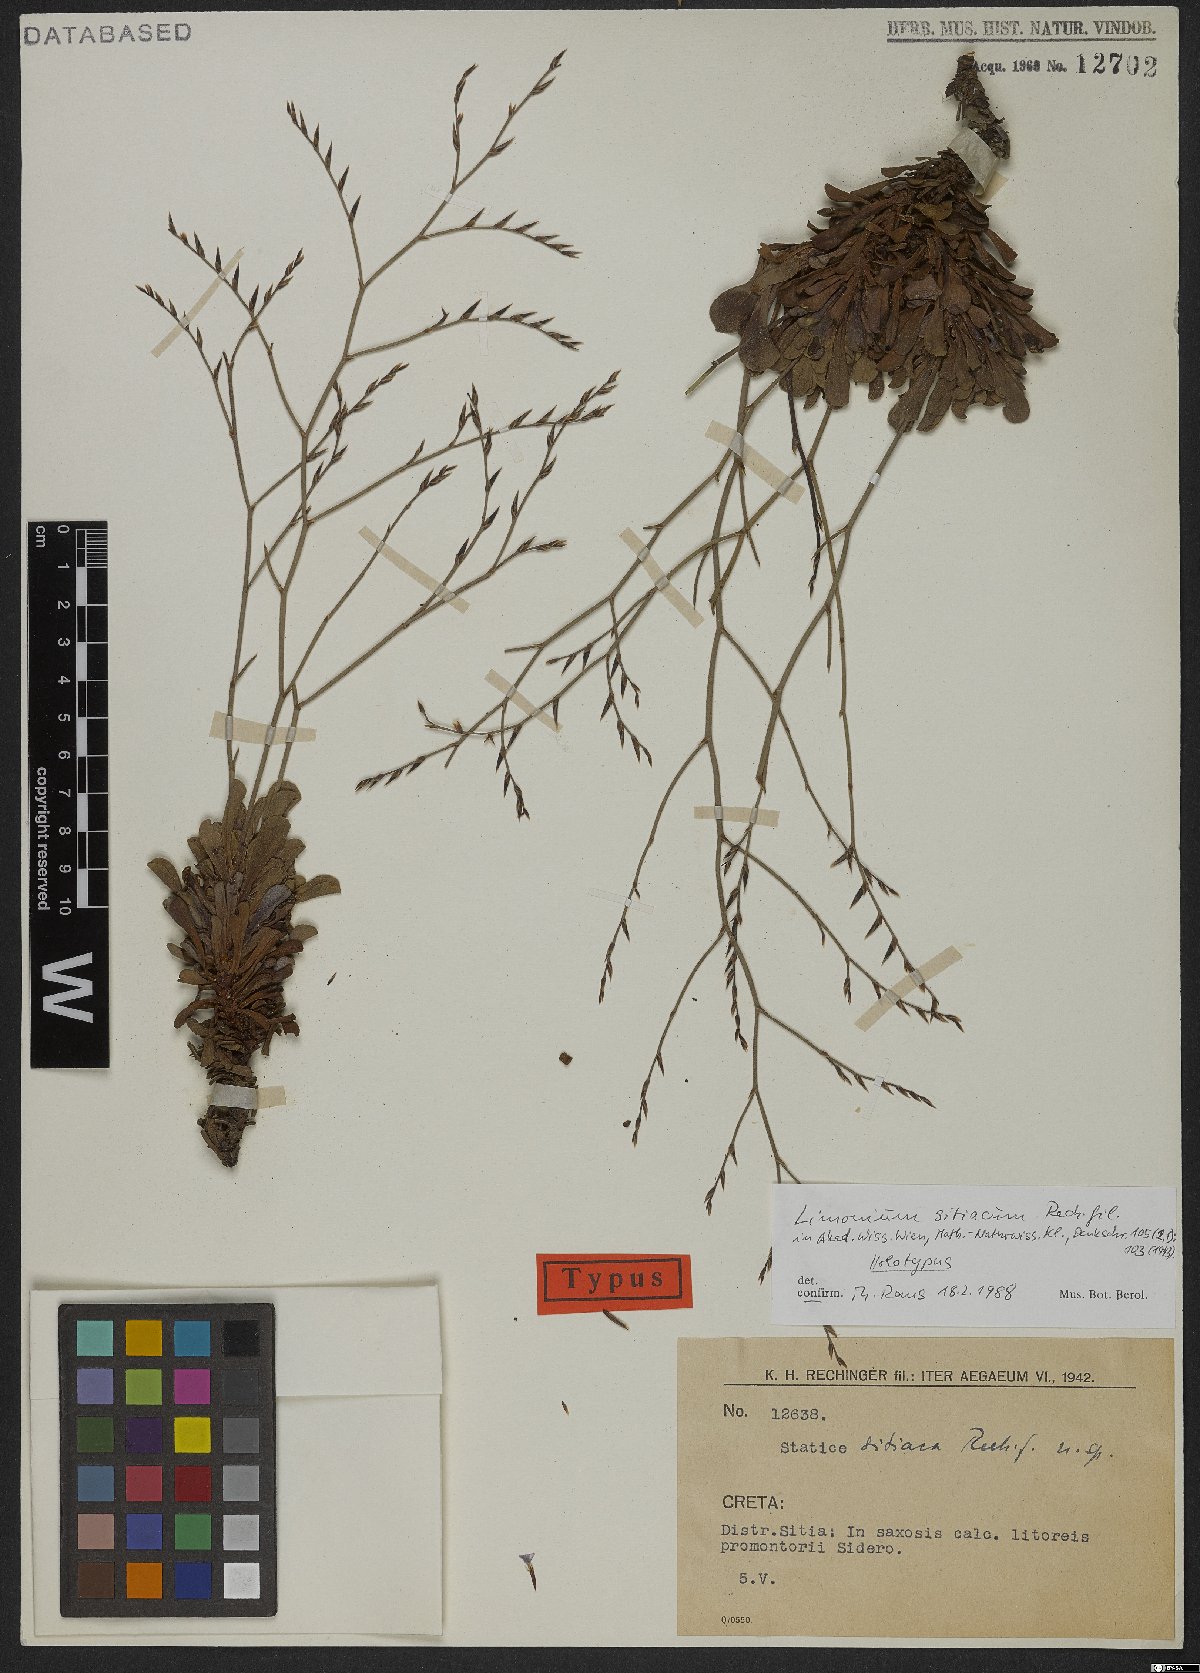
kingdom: Plantae
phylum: Tracheophyta
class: Magnoliopsida
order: Caryophyllales
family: Plumbaginaceae
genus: Limonium
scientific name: Limonium sitiacum
